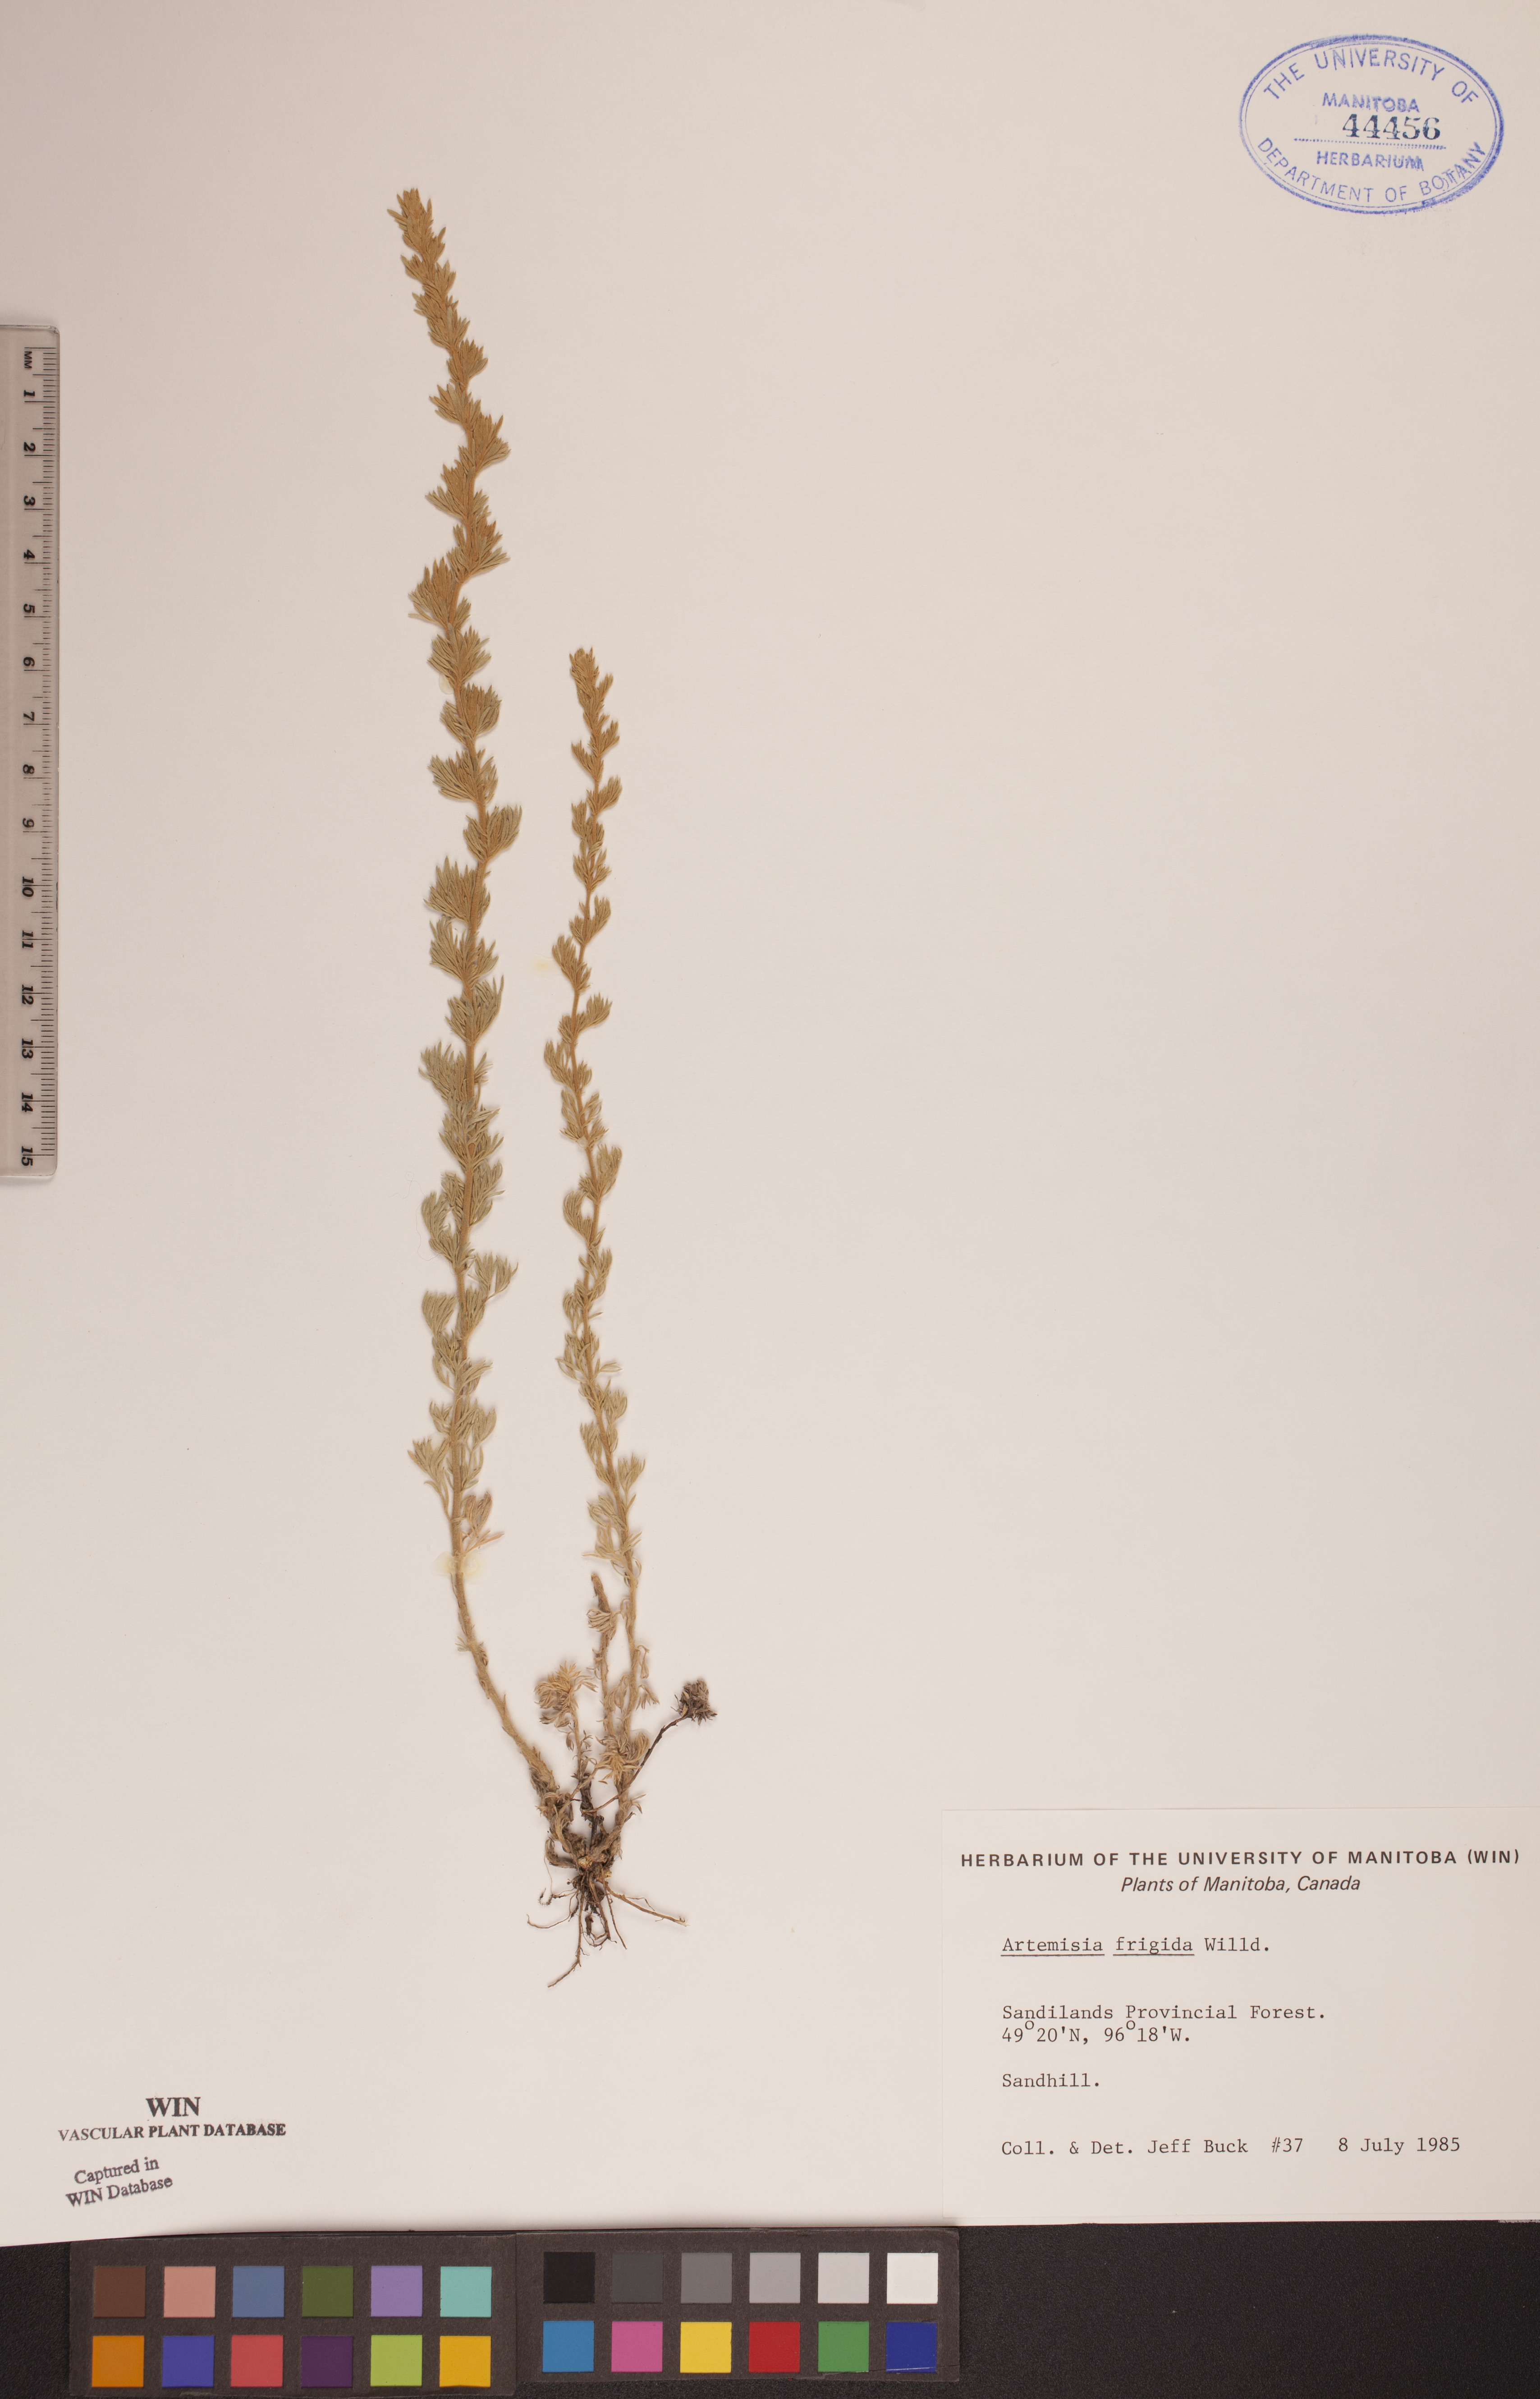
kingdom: Plantae
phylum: Tracheophyta
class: Magnoliopsida
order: Asterales
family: Asteraceae
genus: Artemisia
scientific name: Artemisia frigida
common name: Prairie sagewort
